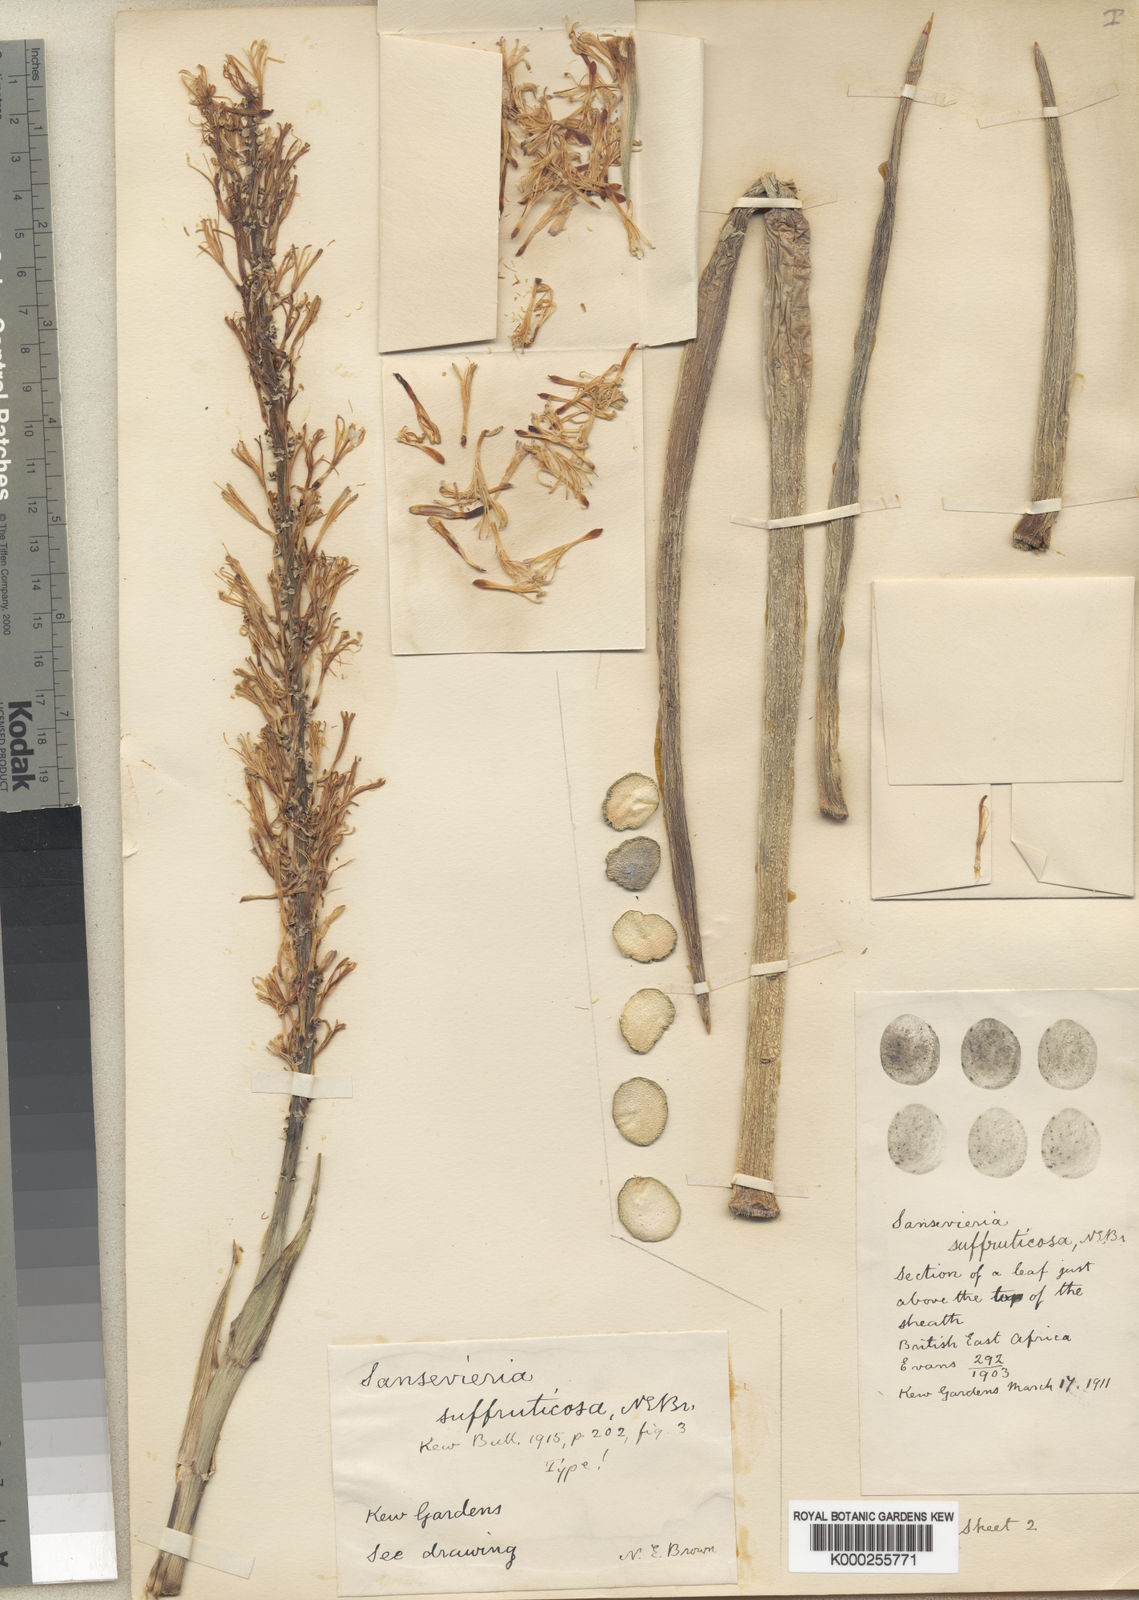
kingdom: Plantae
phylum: Tracheophyta
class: Liliopsida
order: Asparagales
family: Asparagaceae
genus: Dracaena
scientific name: Dracaena suffruticosa
